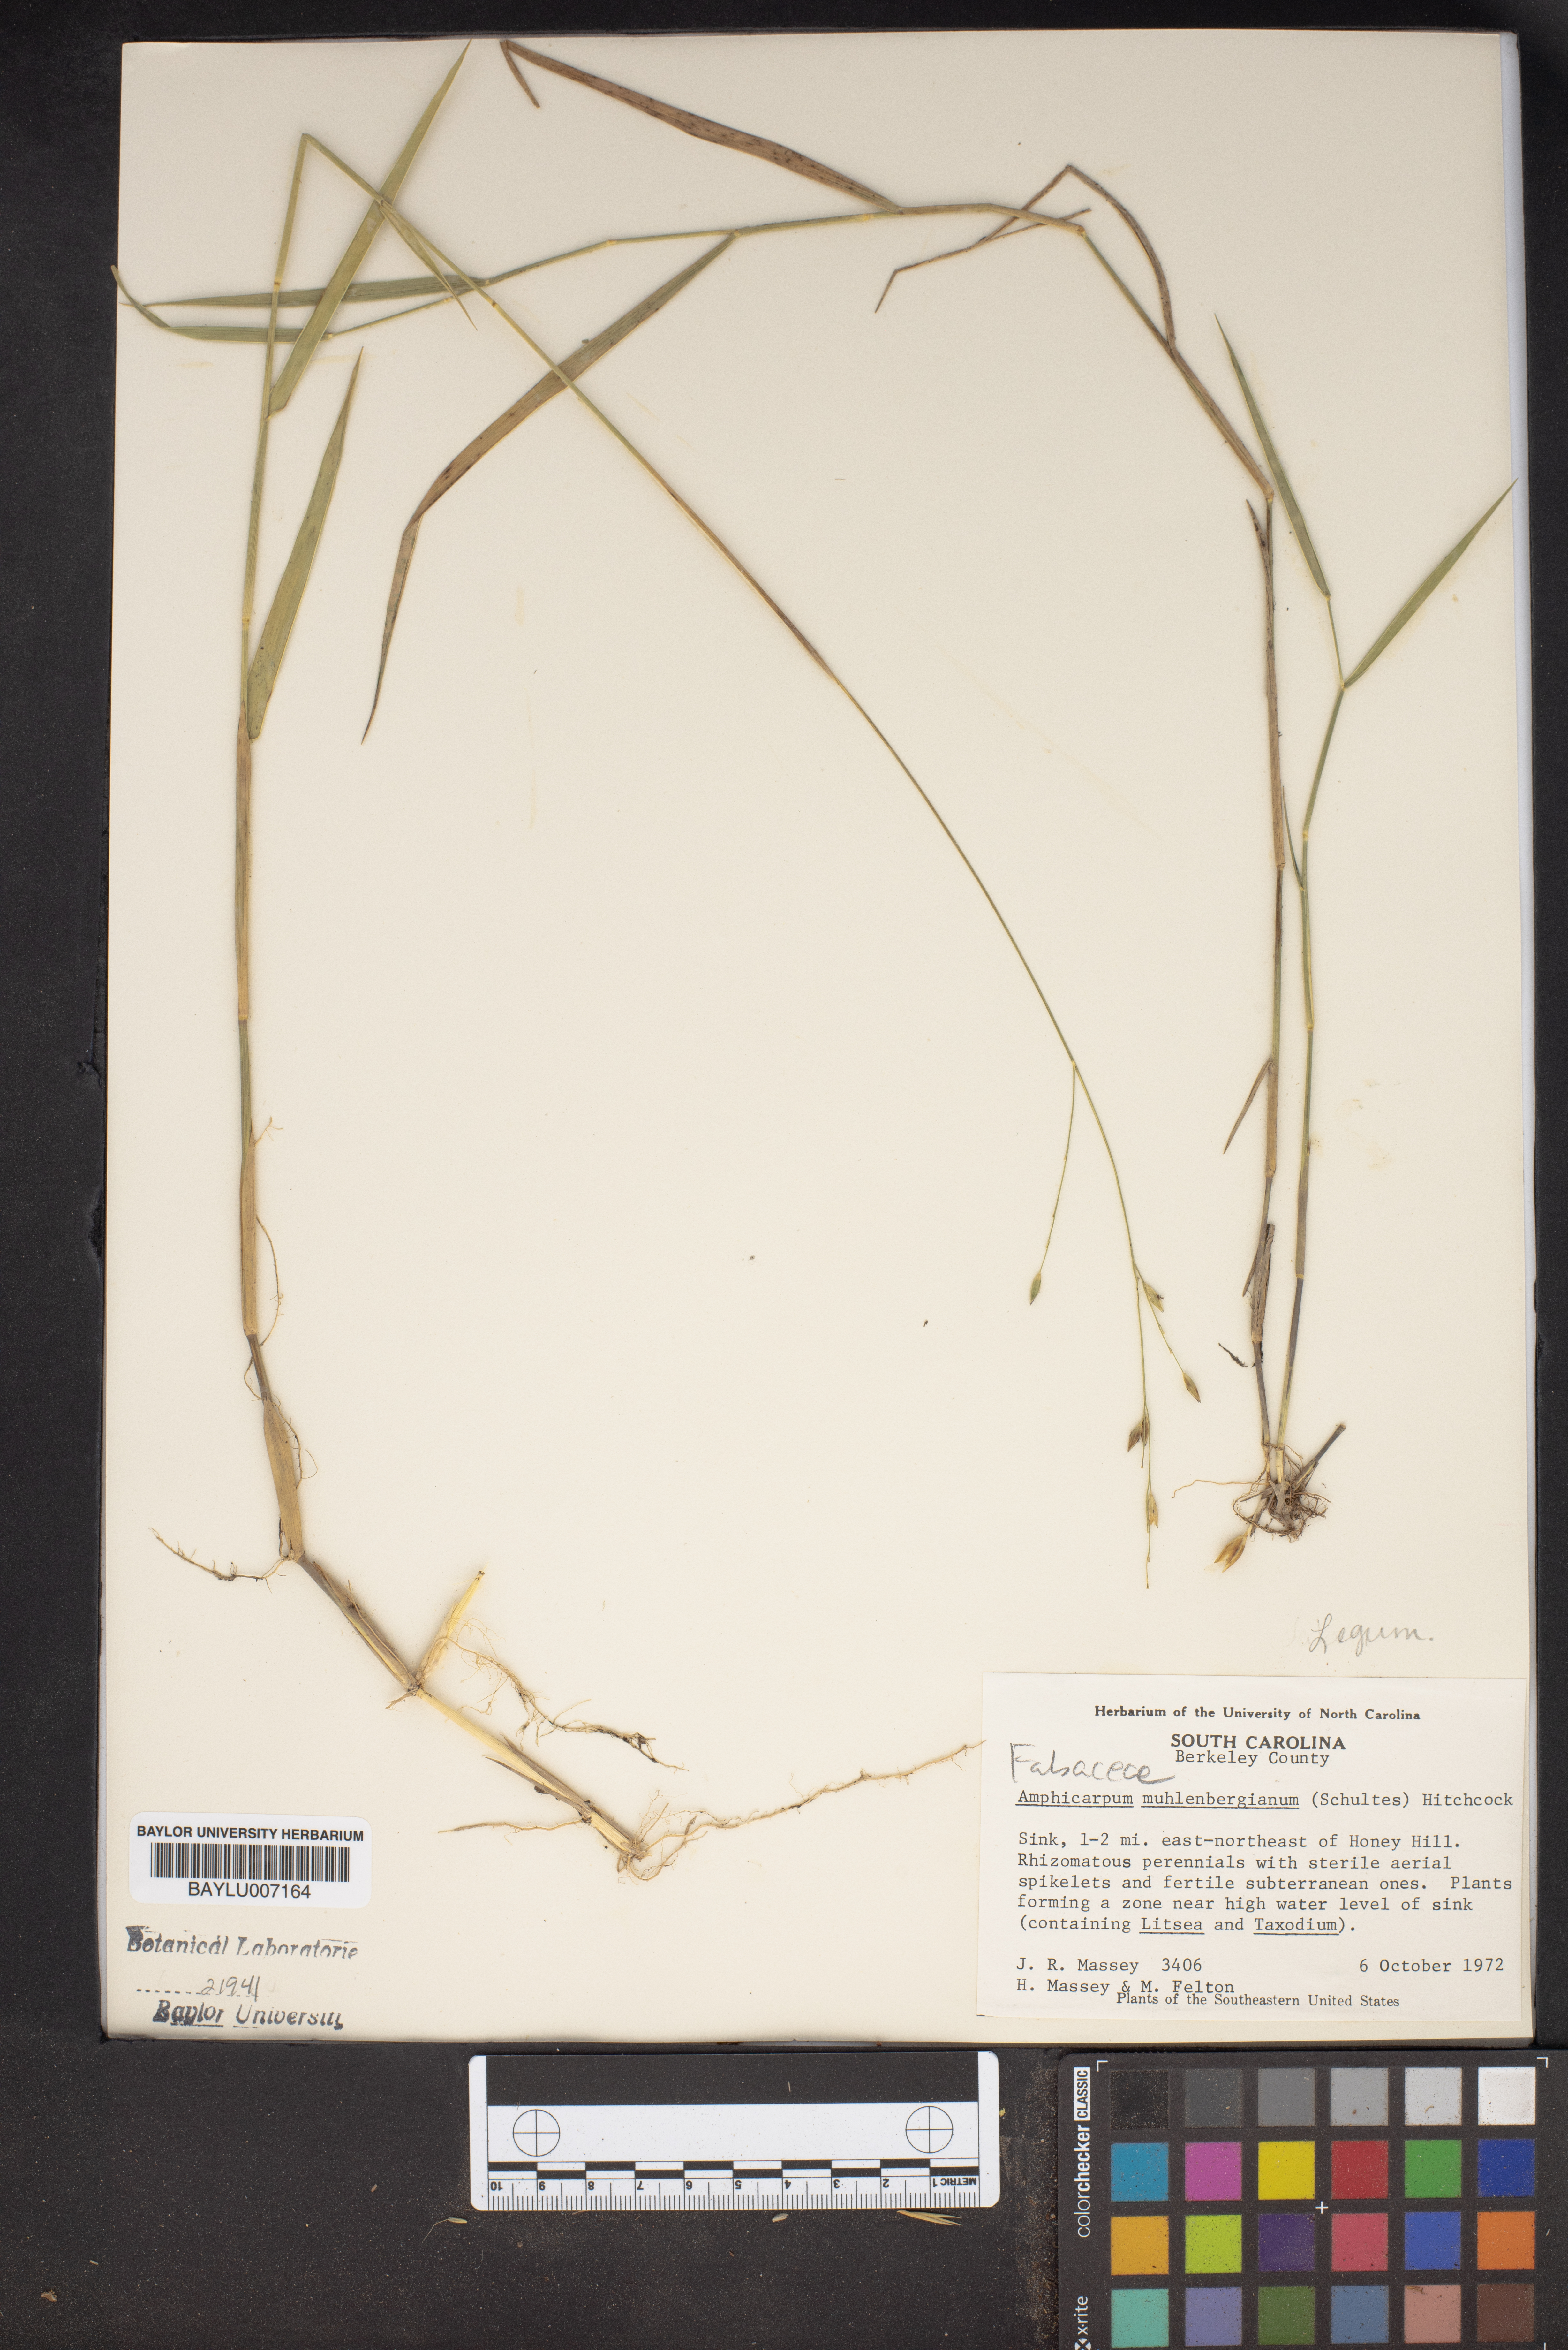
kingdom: Plantae
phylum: Tracheophyta
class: Liliopsida
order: Poales
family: Poaceae
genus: Amphicarpum
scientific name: Amphicarpum muhlenbergianum
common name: Blue maidencane
